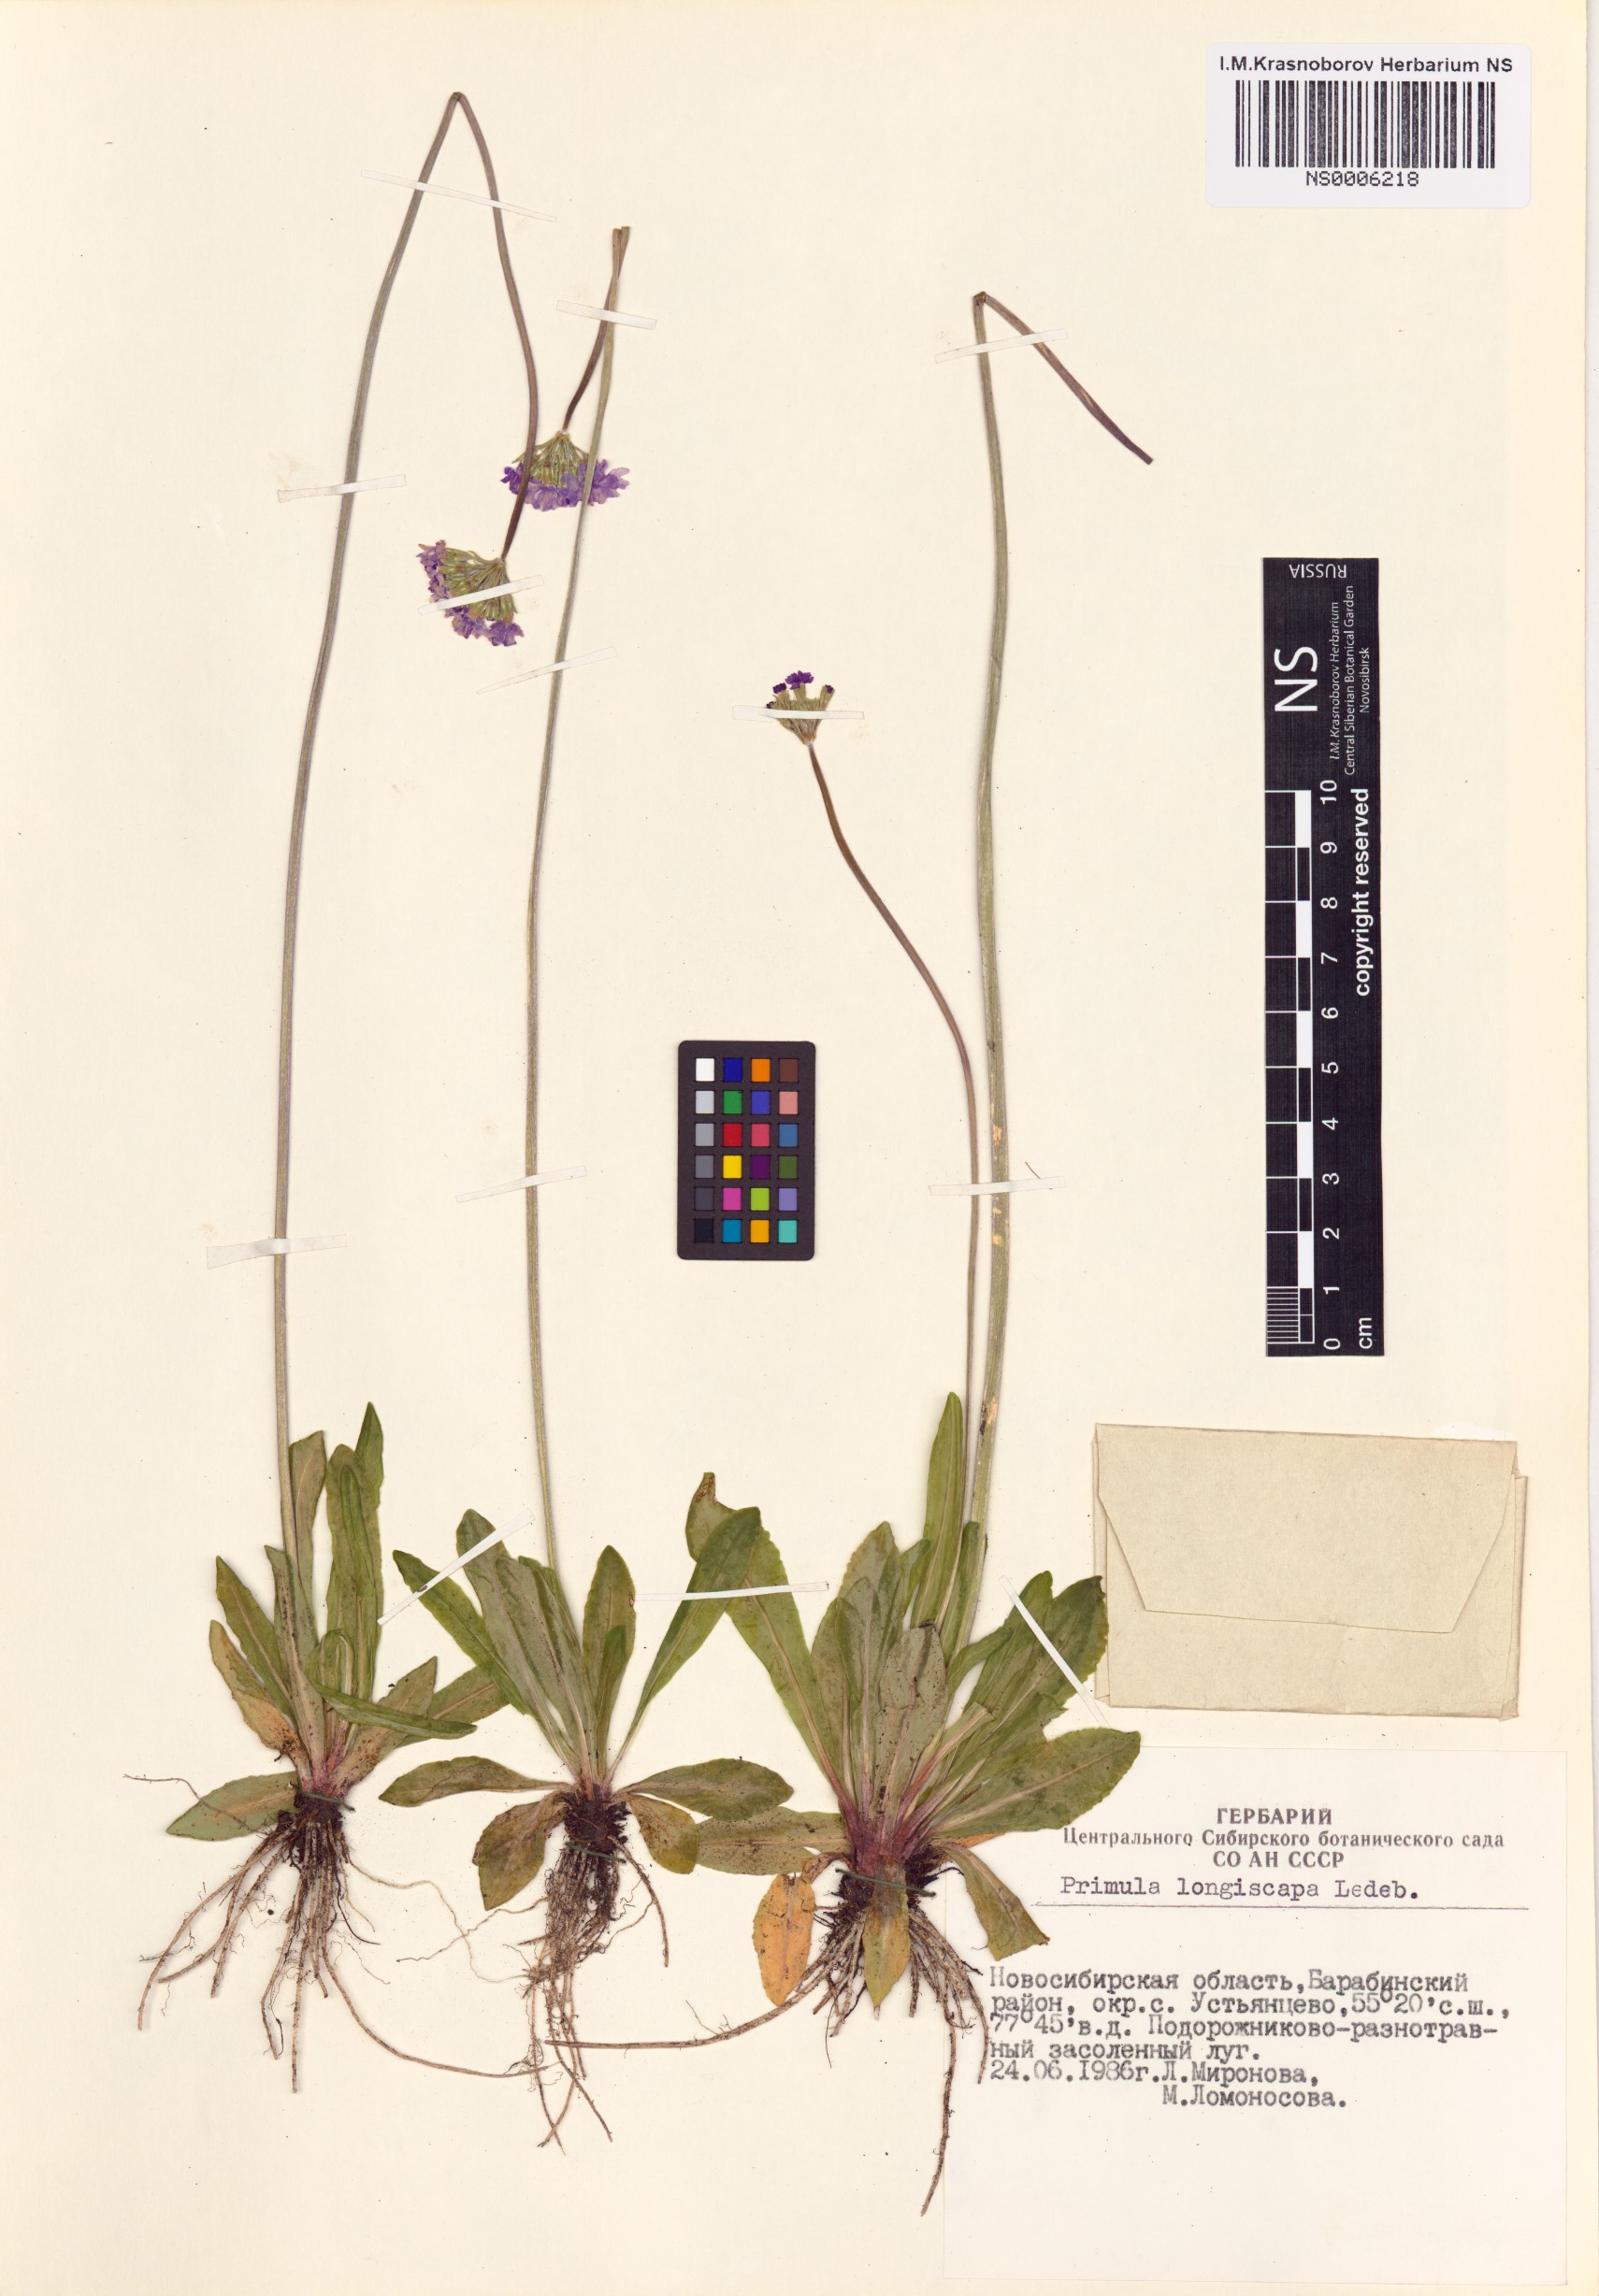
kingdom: Plantae
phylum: Tracheophyta
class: Magnoliopsida
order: Ericales
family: Primulaceae
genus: Primula
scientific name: Primula longiscapa
